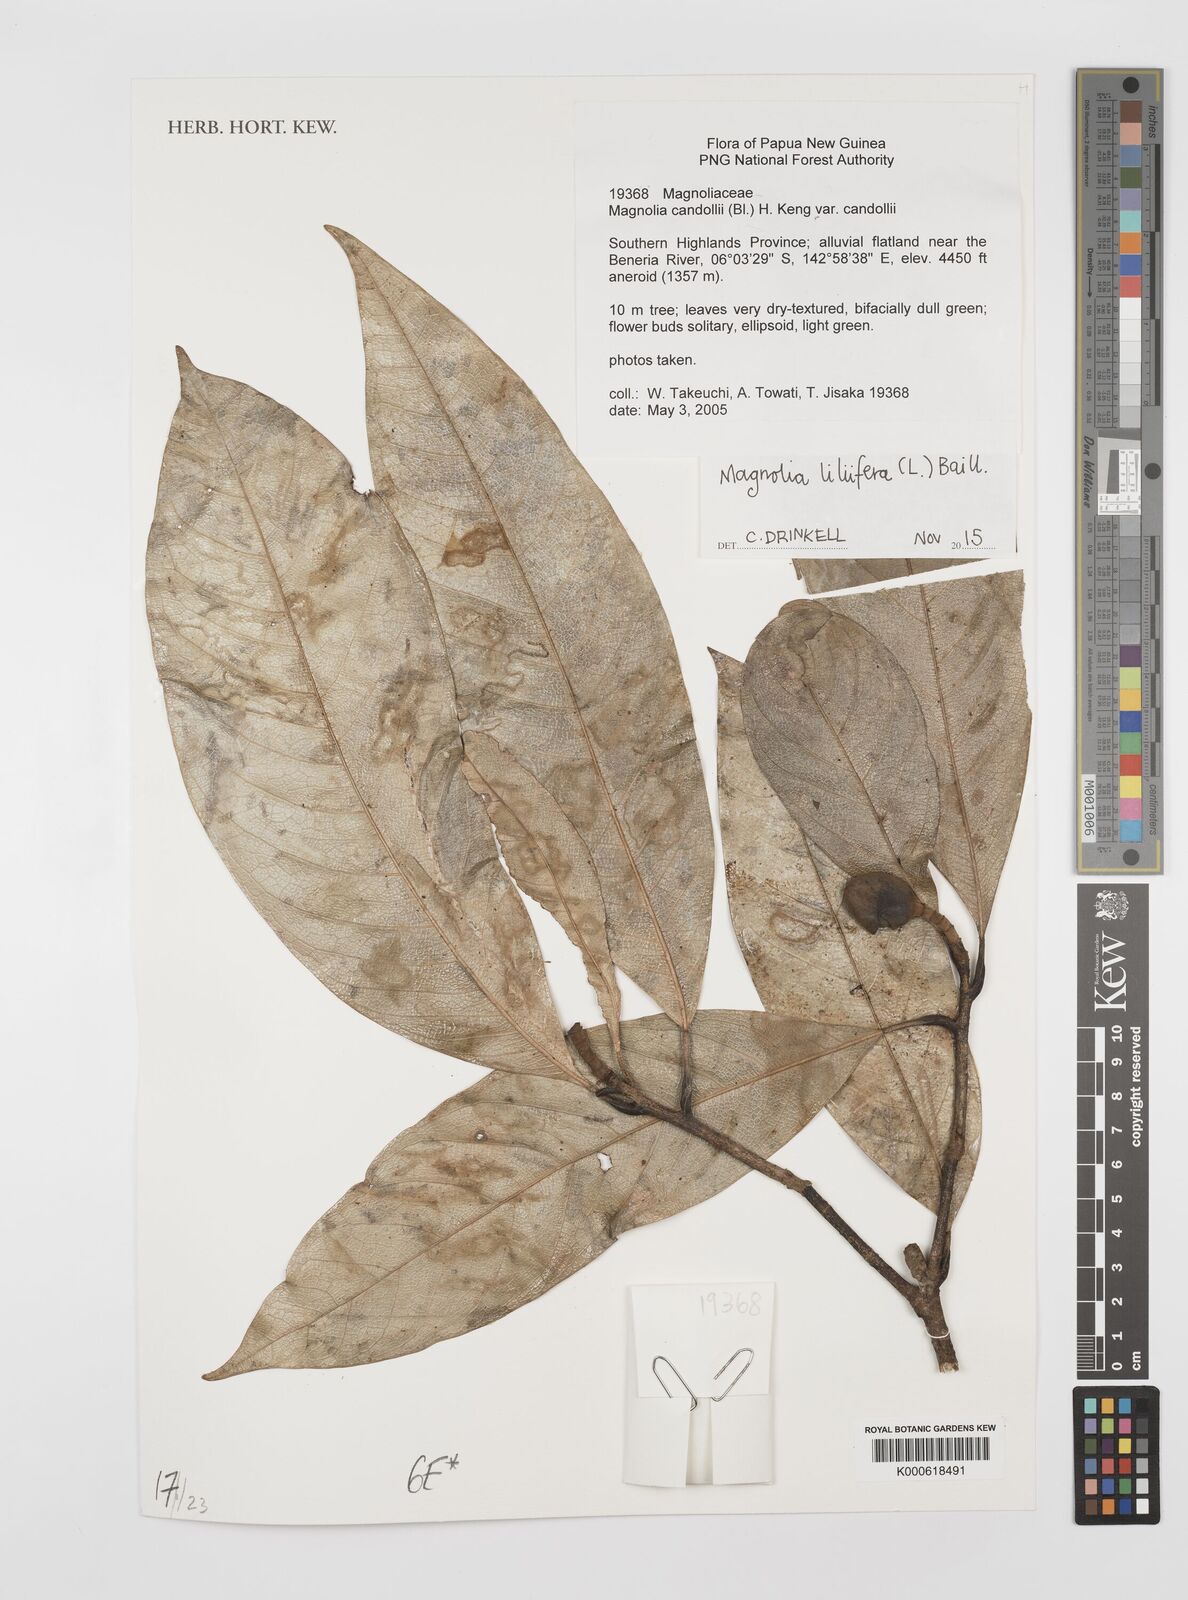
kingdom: Plantae
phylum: Tracheophyta
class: Magnoliopsida
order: Magnoliales
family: Magnoliaceae
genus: Magnolia
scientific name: Magnolia liliifera
